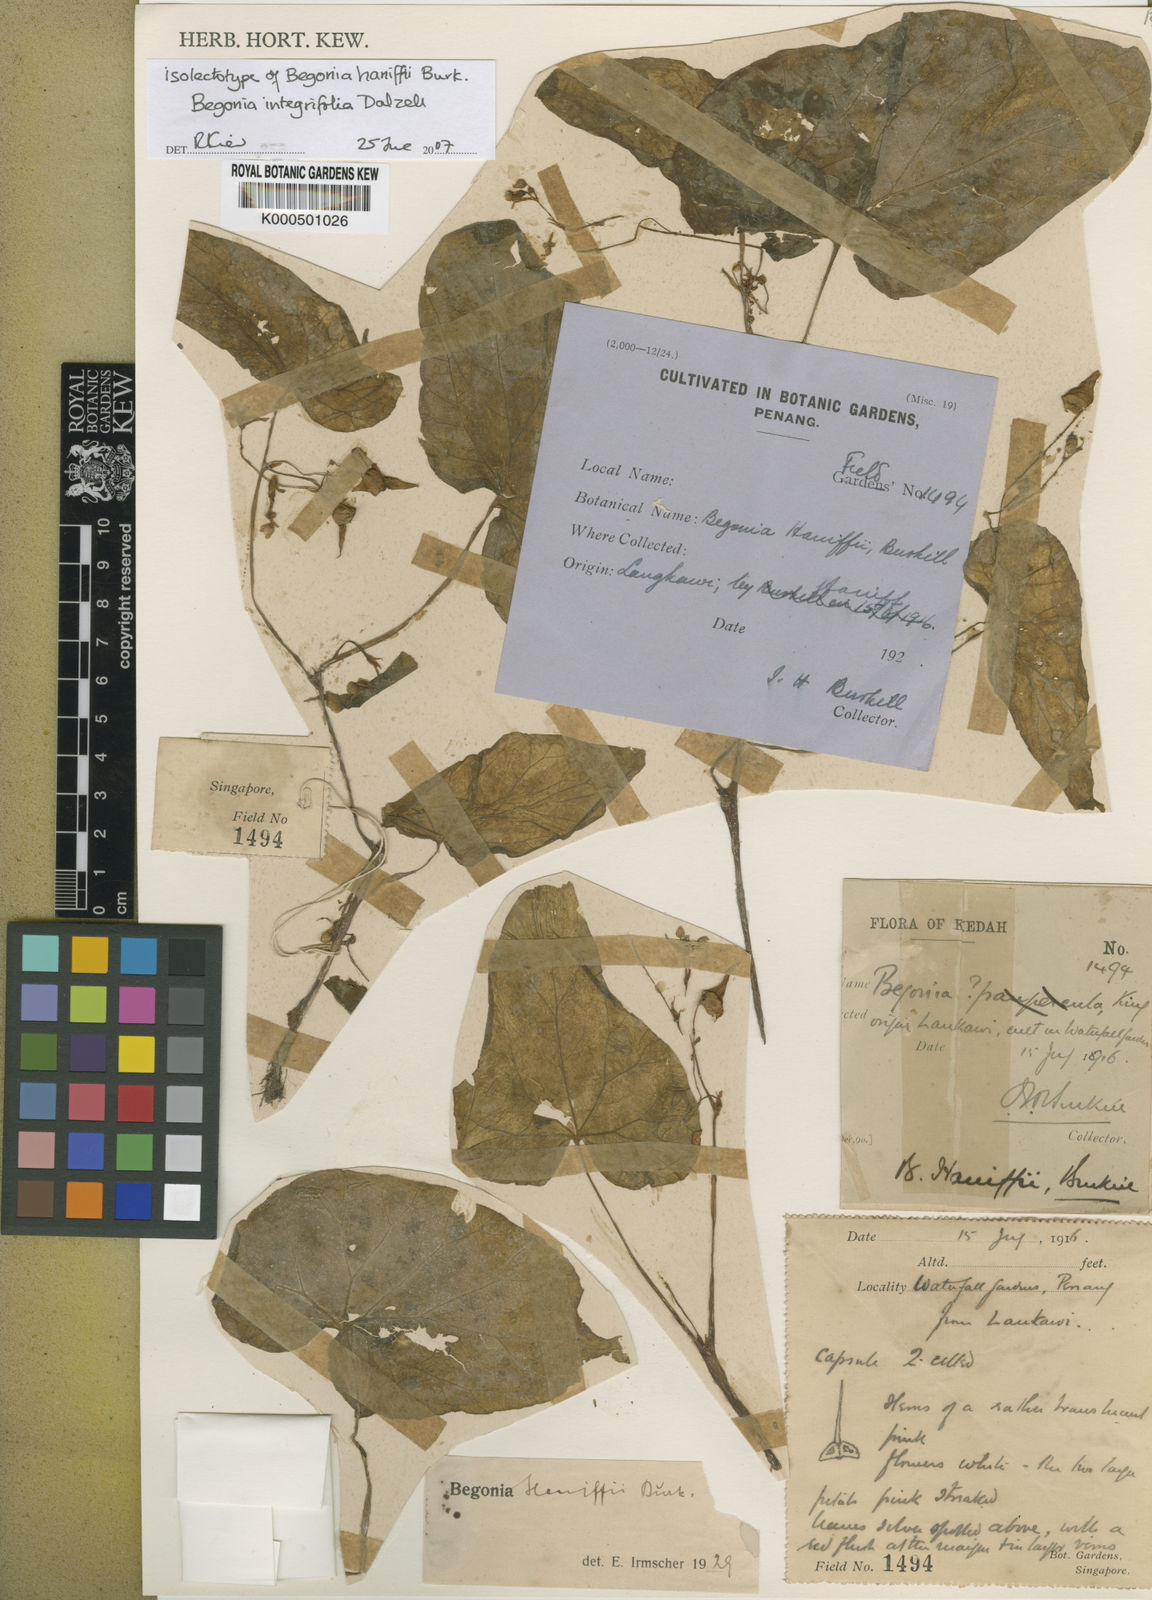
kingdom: Plantae
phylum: Tracheophyta
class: Magnoliopsida
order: Cucurbitales
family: Begoniaceae
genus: Begonia
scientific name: Begonia integrifolia
